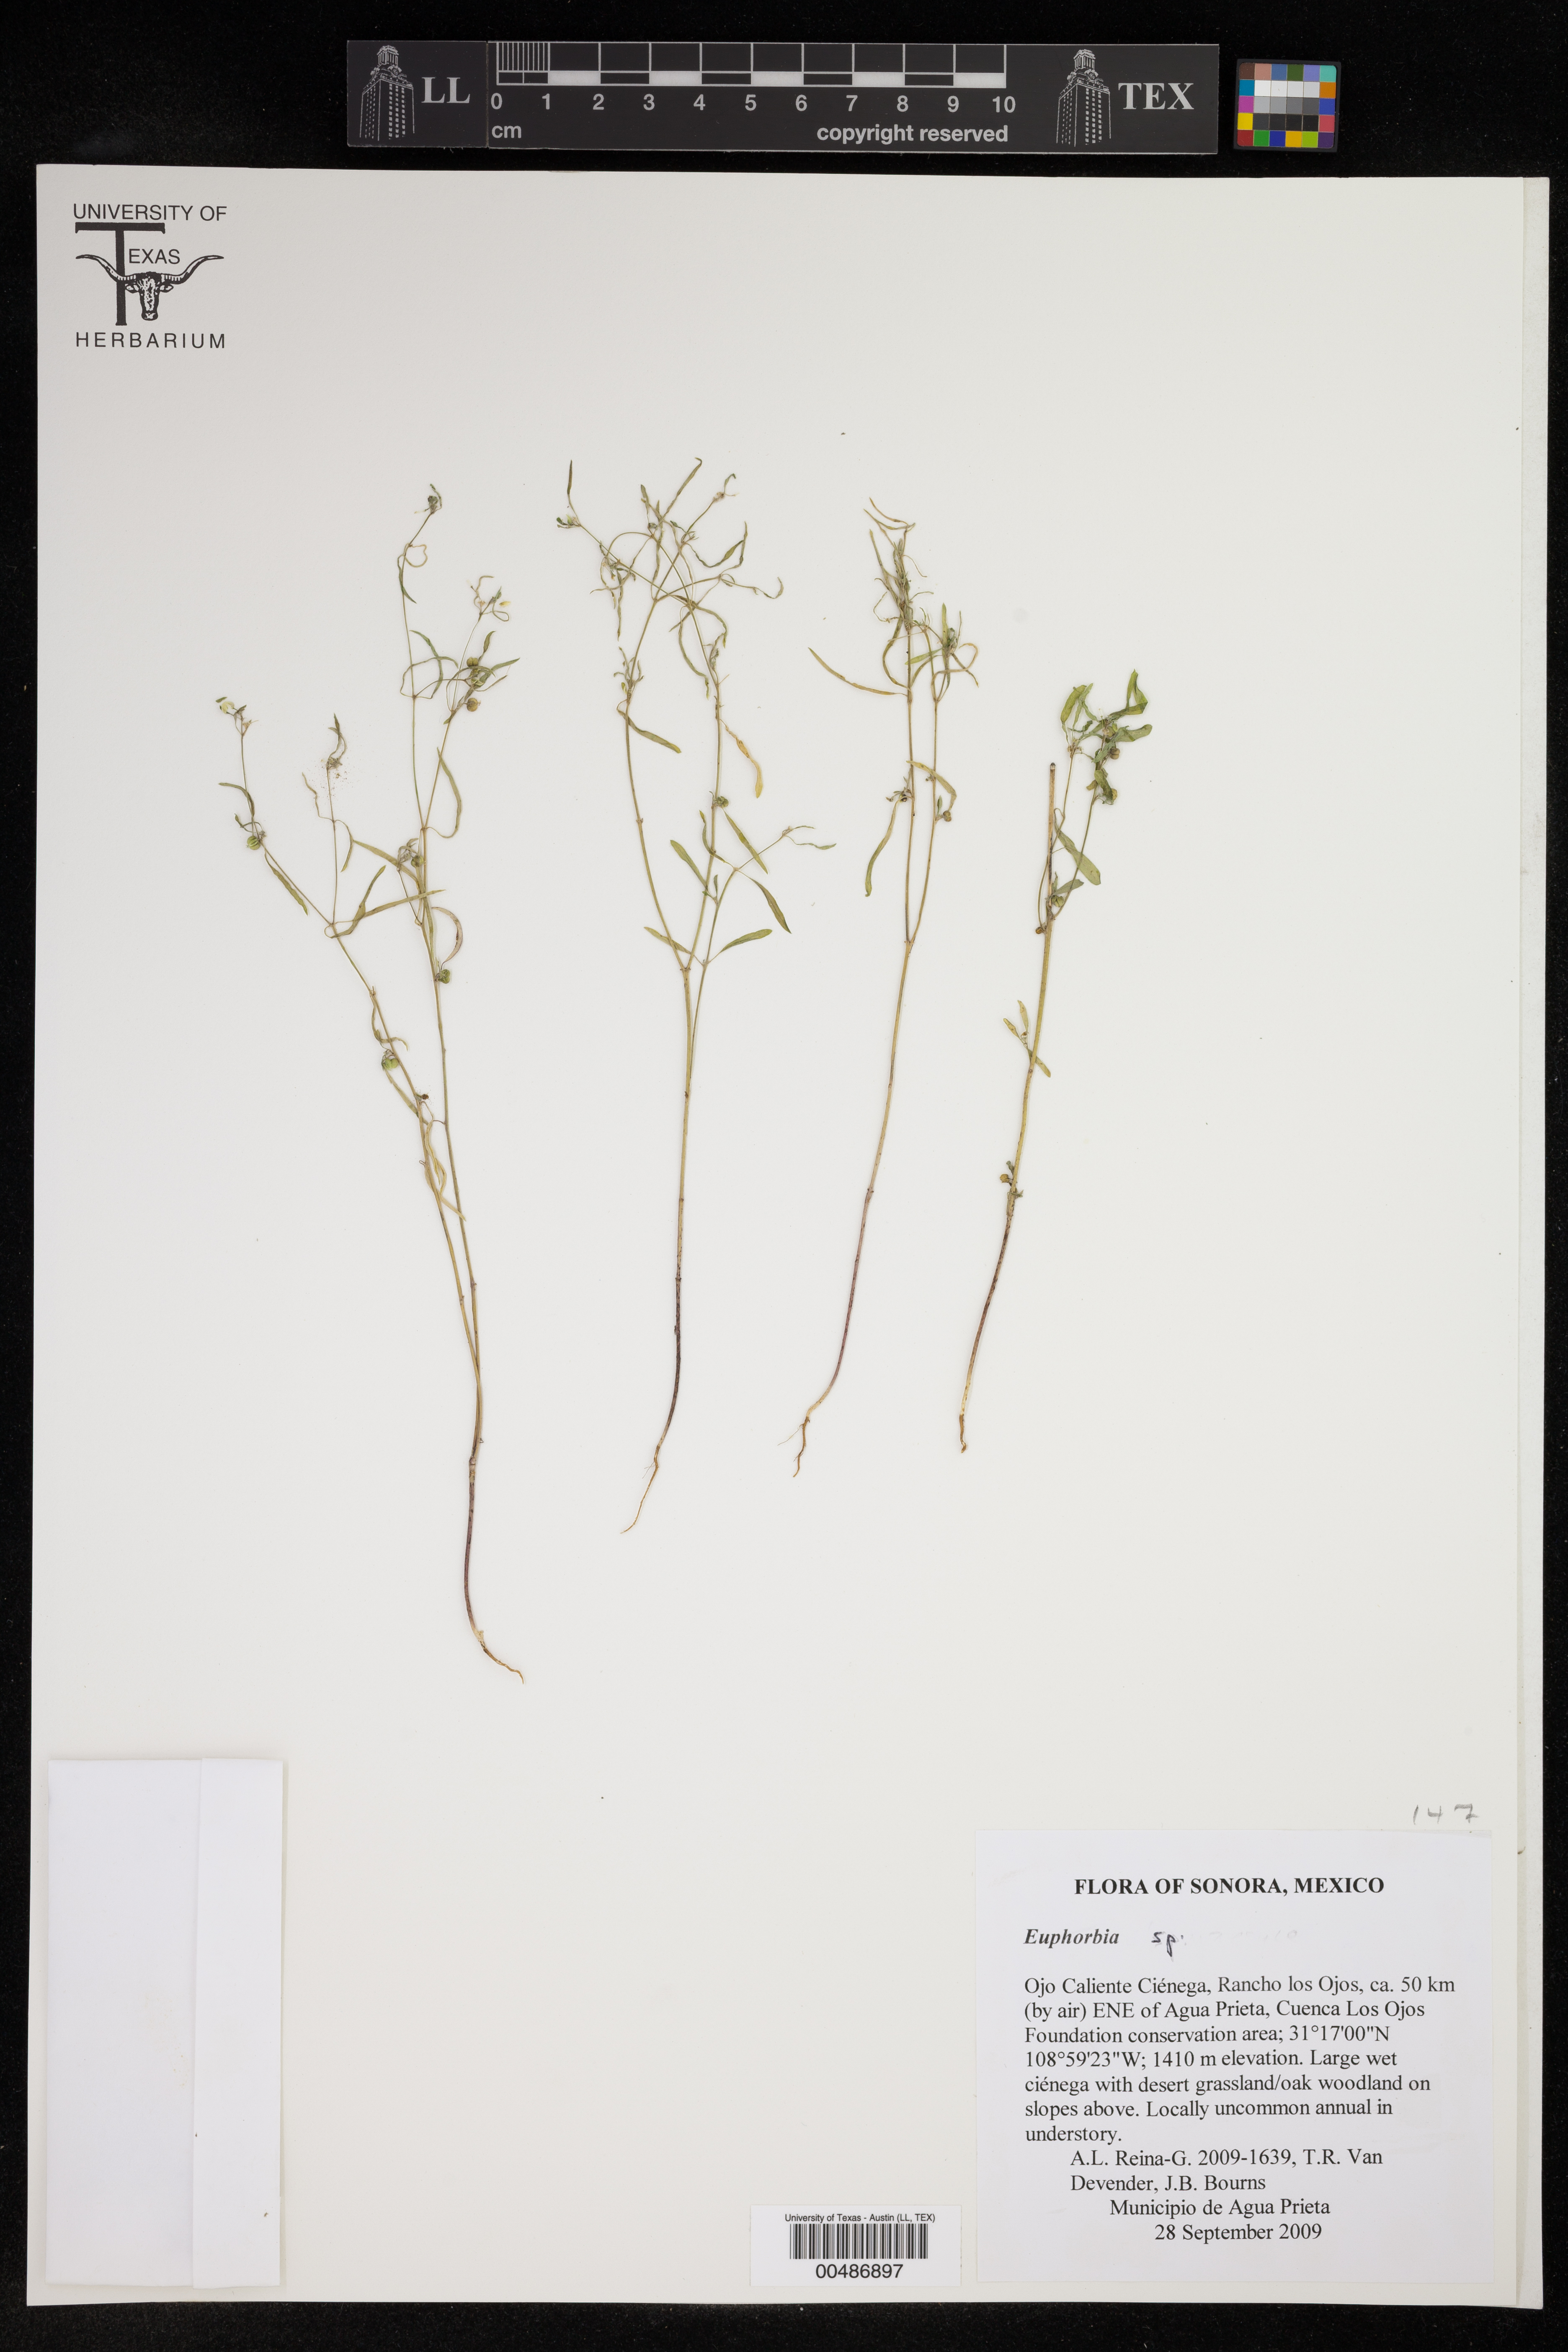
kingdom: Plantae
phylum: Tracheophyta
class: Magnoliopsida
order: Malpighiales
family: Euphorbiaceae
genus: Euphorbia
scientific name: Euphorbia
